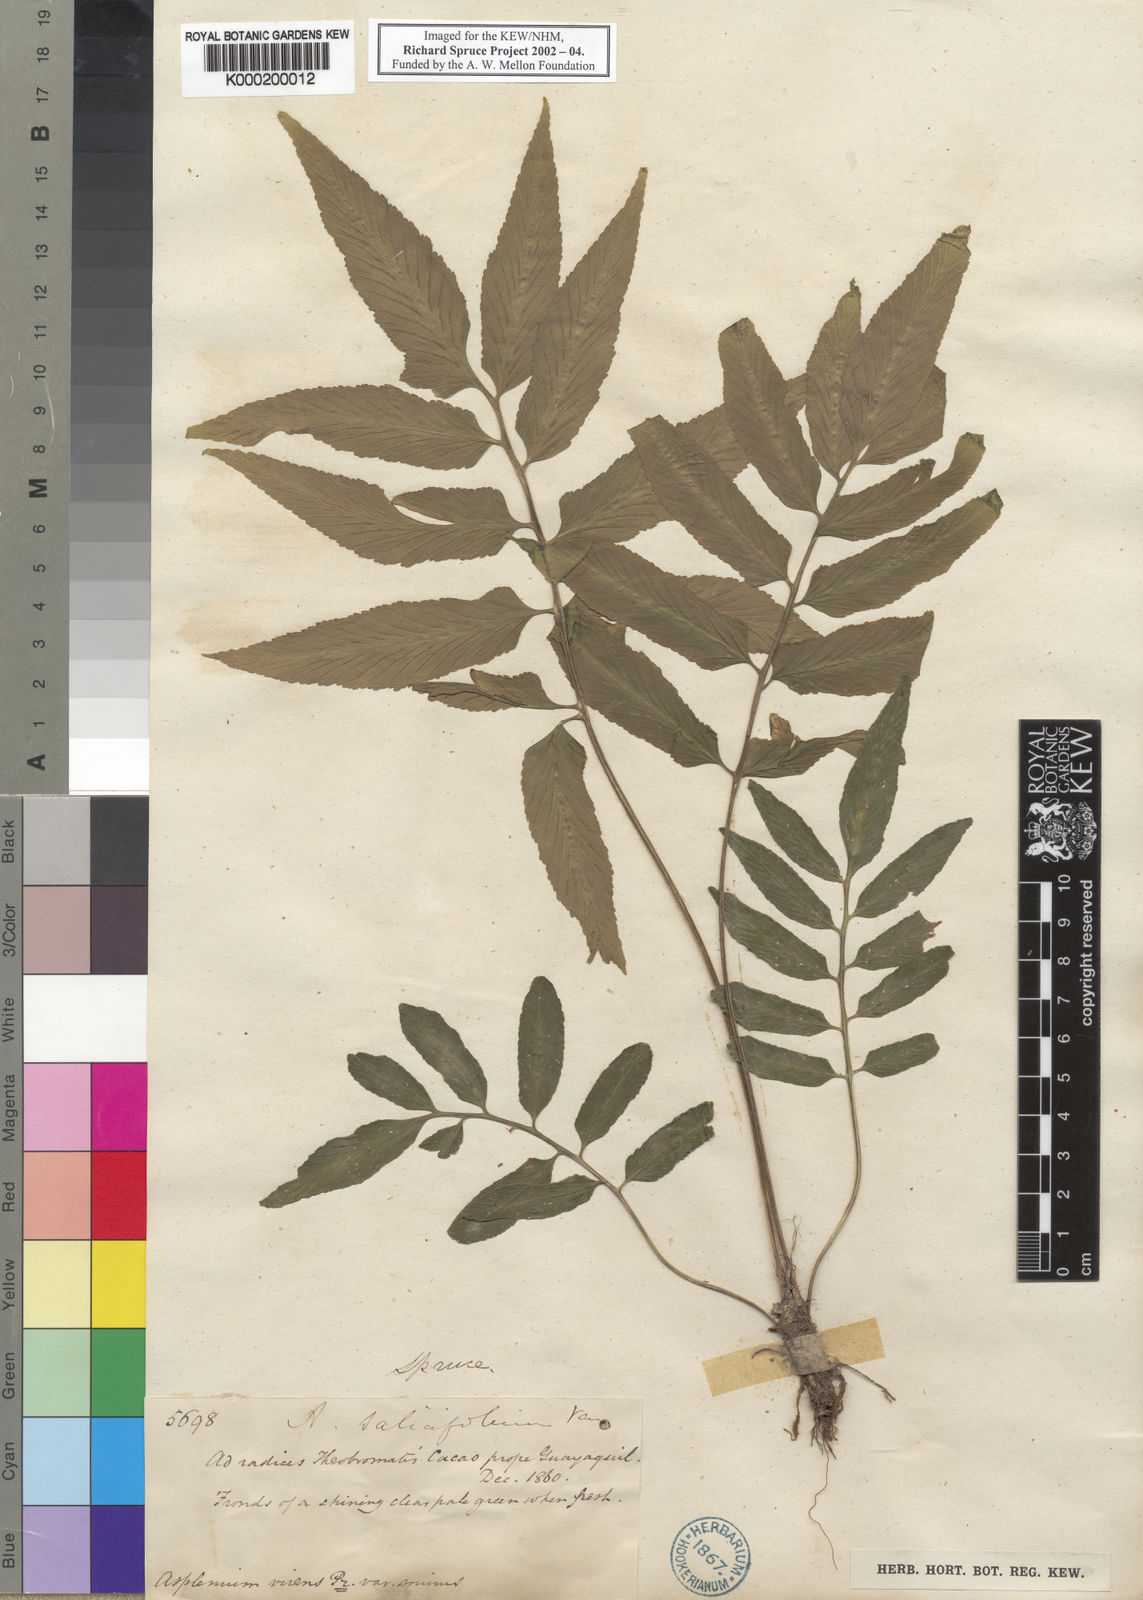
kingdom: Plantae
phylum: Tracheophyta
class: Polypodiopsida
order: Polypodiales
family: Aspleniaceae
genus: Asplenium
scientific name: Asplenium virens
